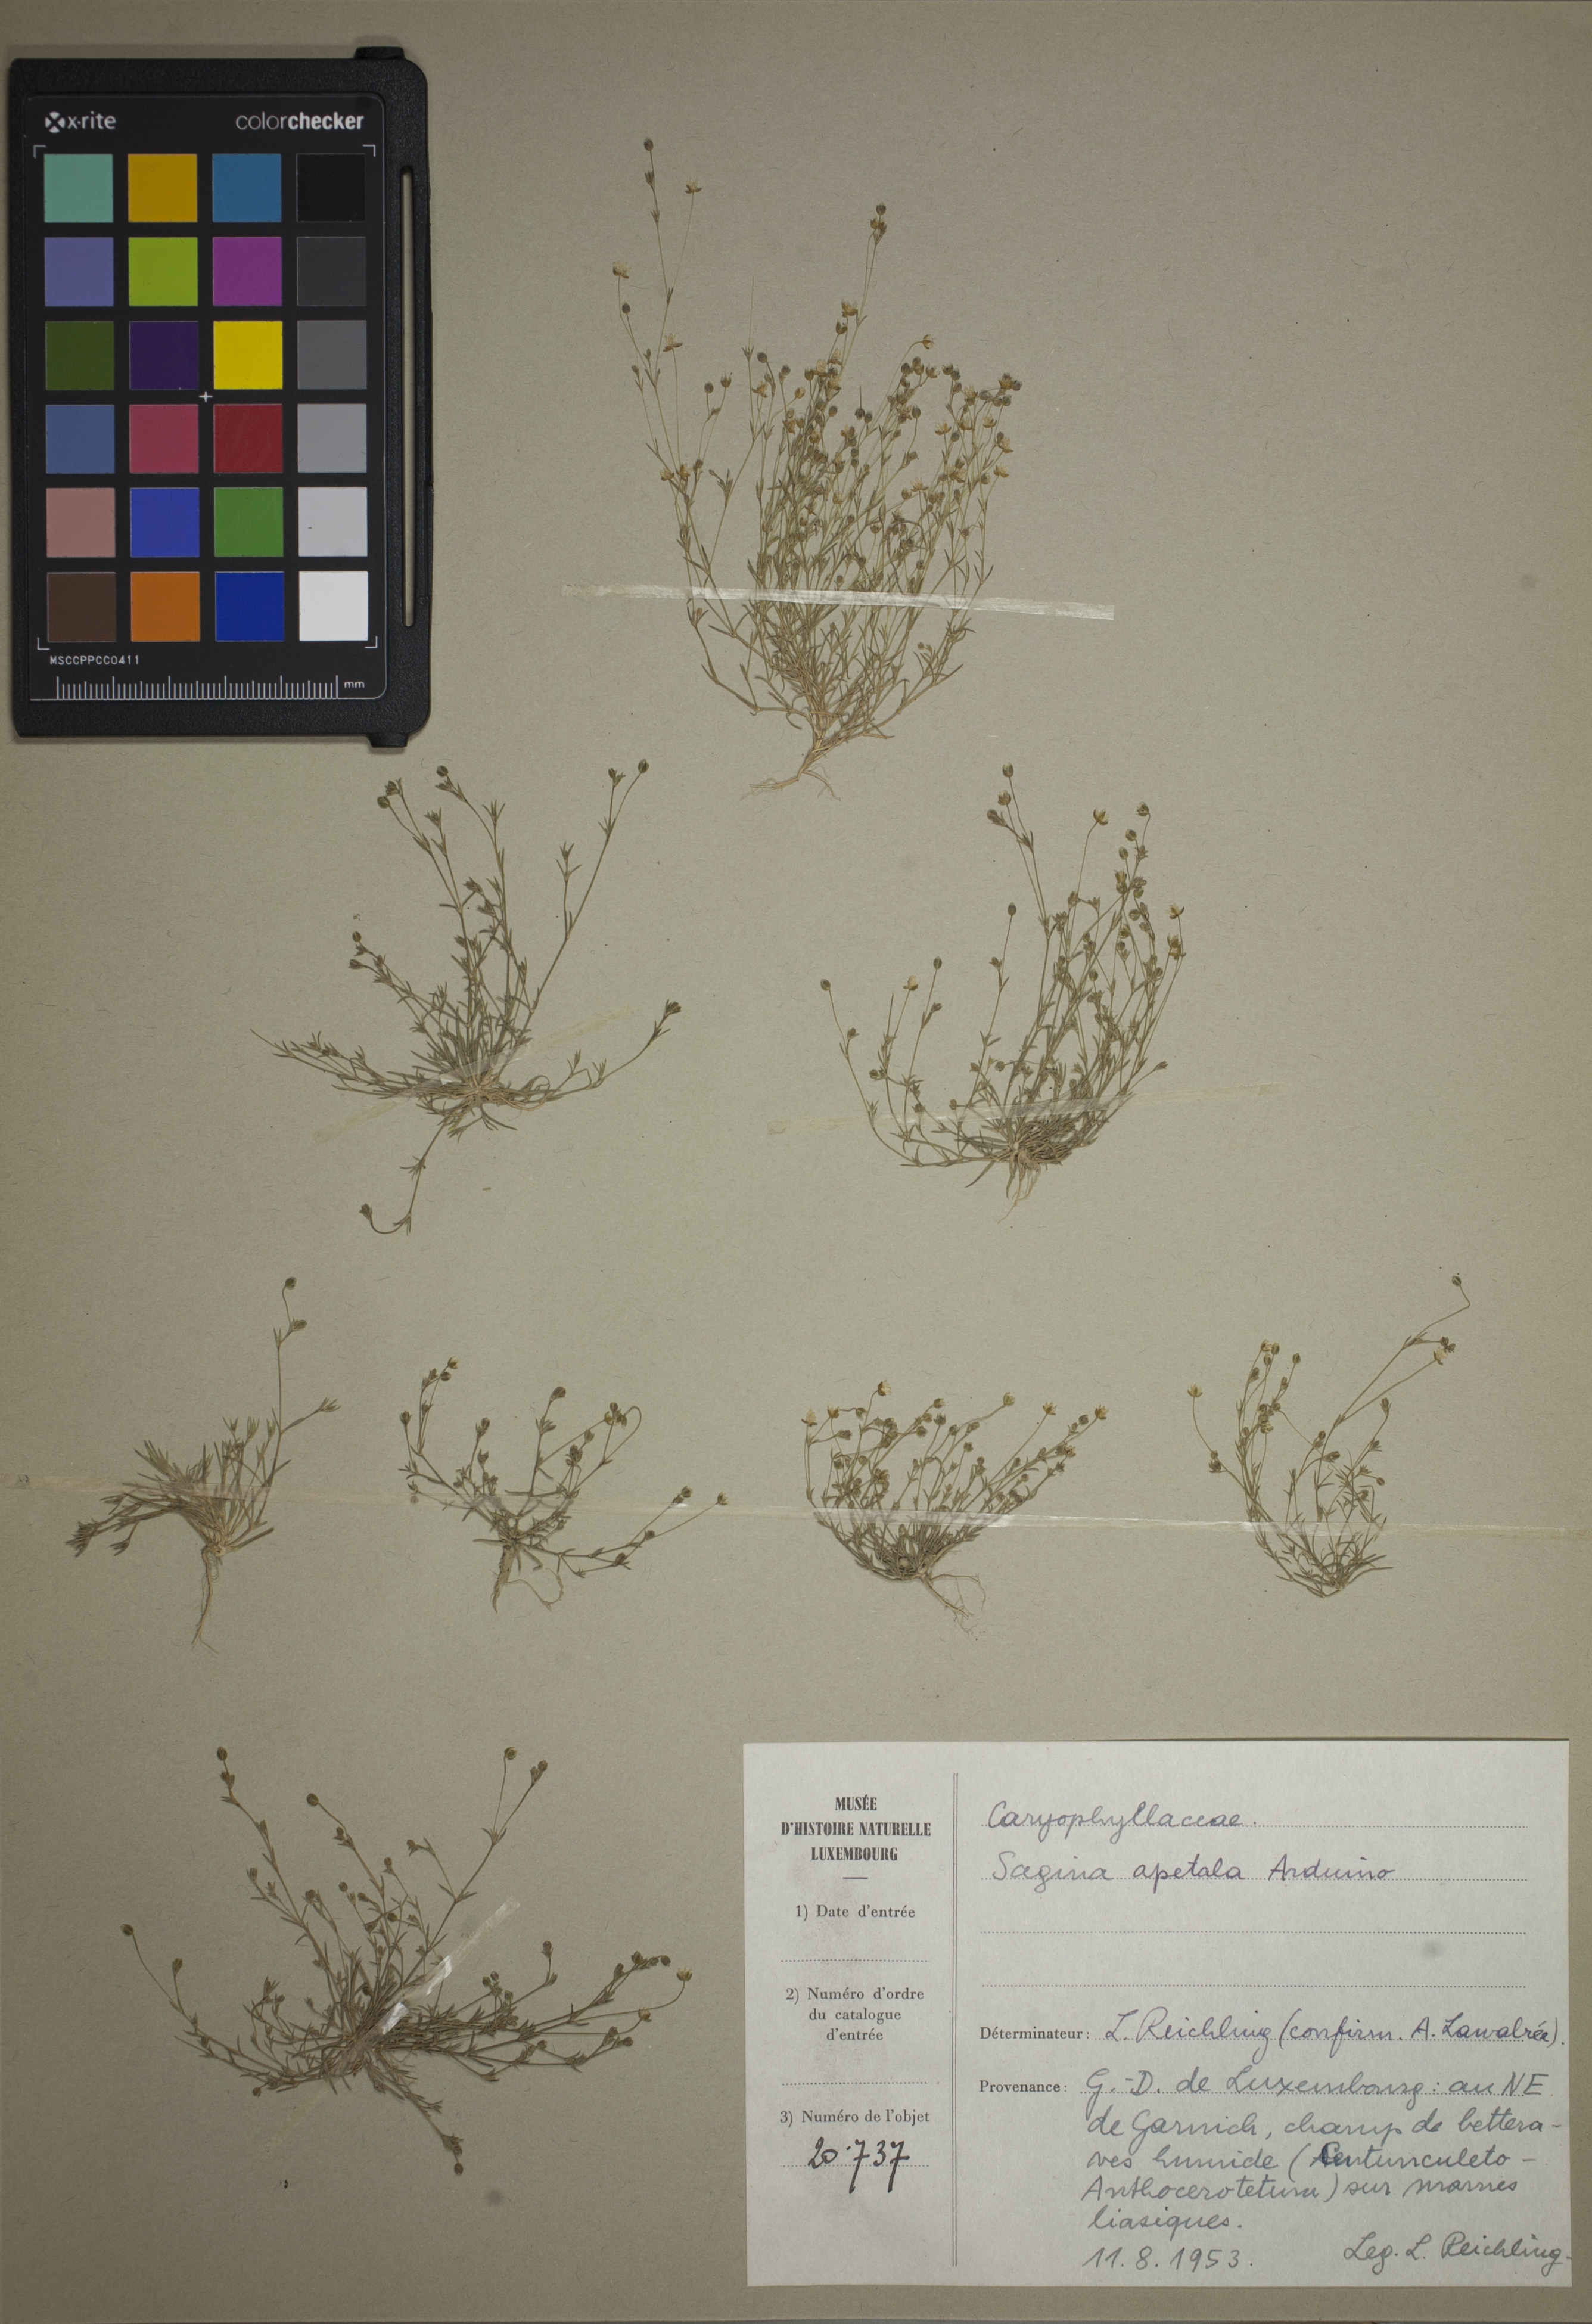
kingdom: Plantae
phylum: Tracheophyta
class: Magnoliopsida
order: Caryophyllales
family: Caryophyllaceae
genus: Sagina
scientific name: Sagina apetala
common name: Annual pearlwort
